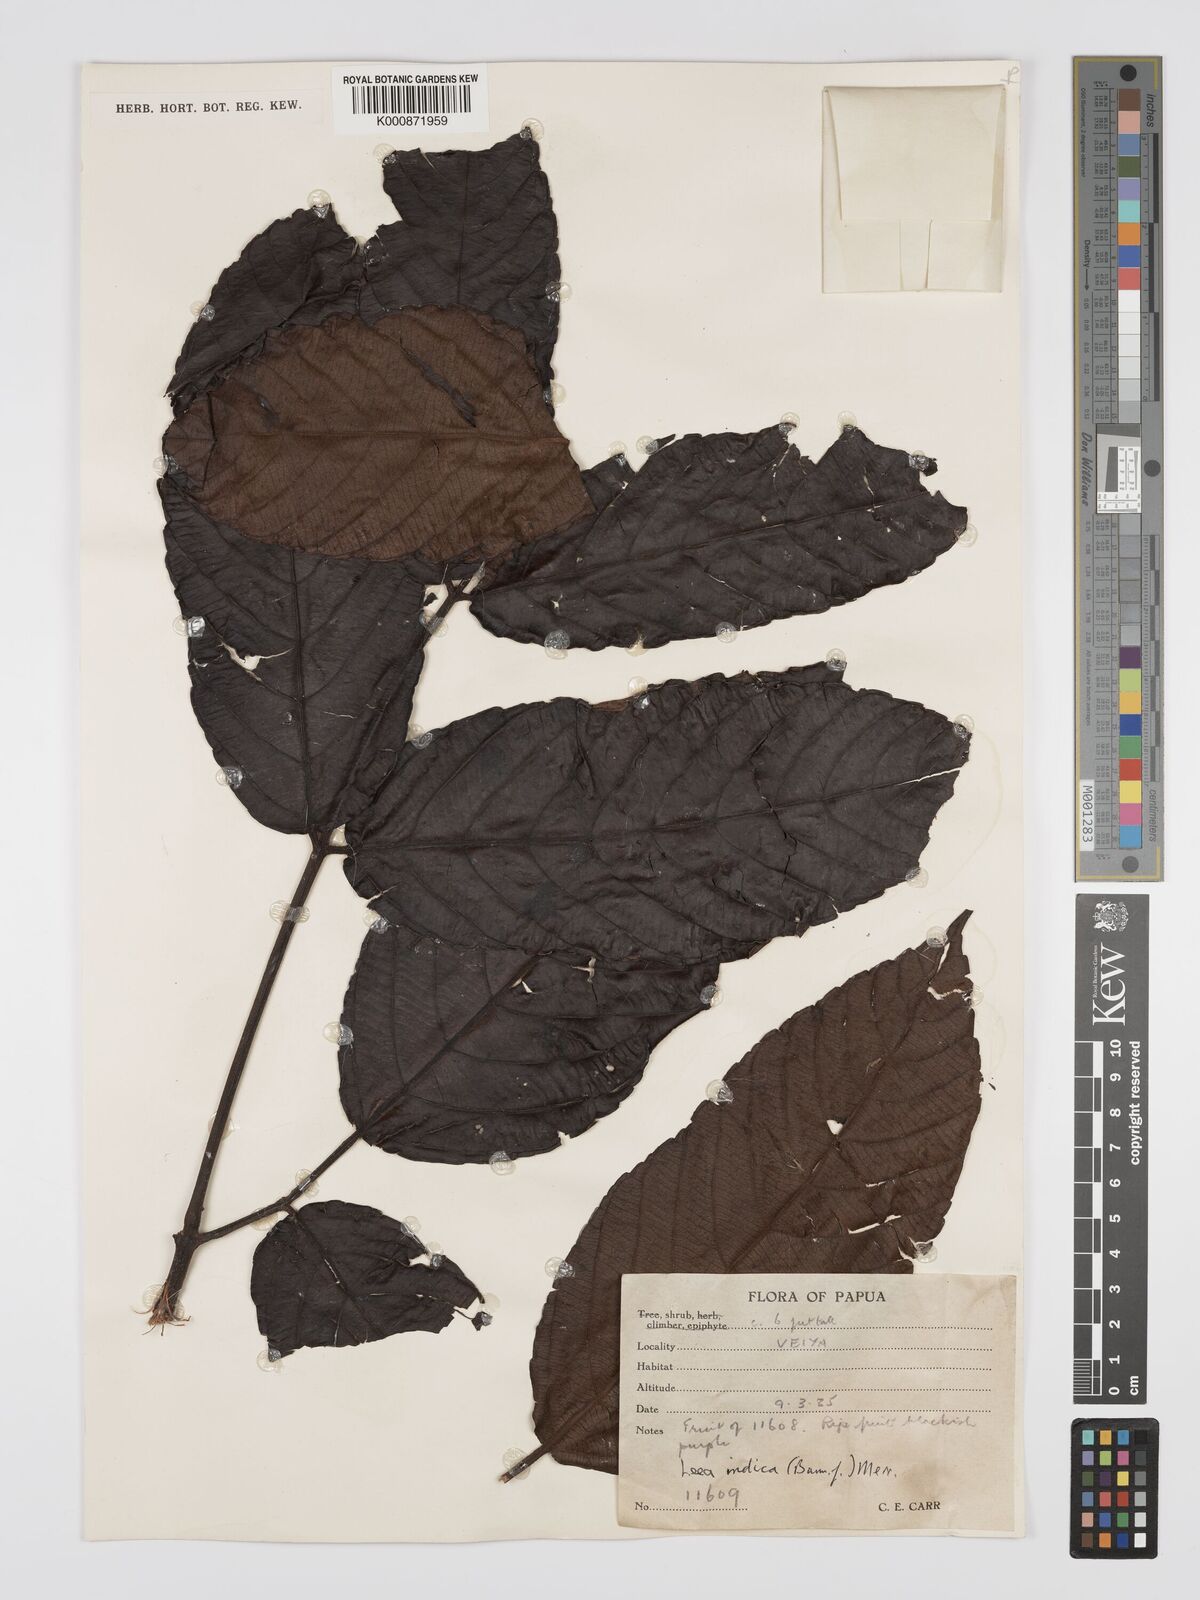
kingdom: Plantae
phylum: Tracheophyta
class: Magnoliopsida
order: Vitales
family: Vitaceae
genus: Leea
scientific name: Leea indica
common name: Bandicoot-berry
